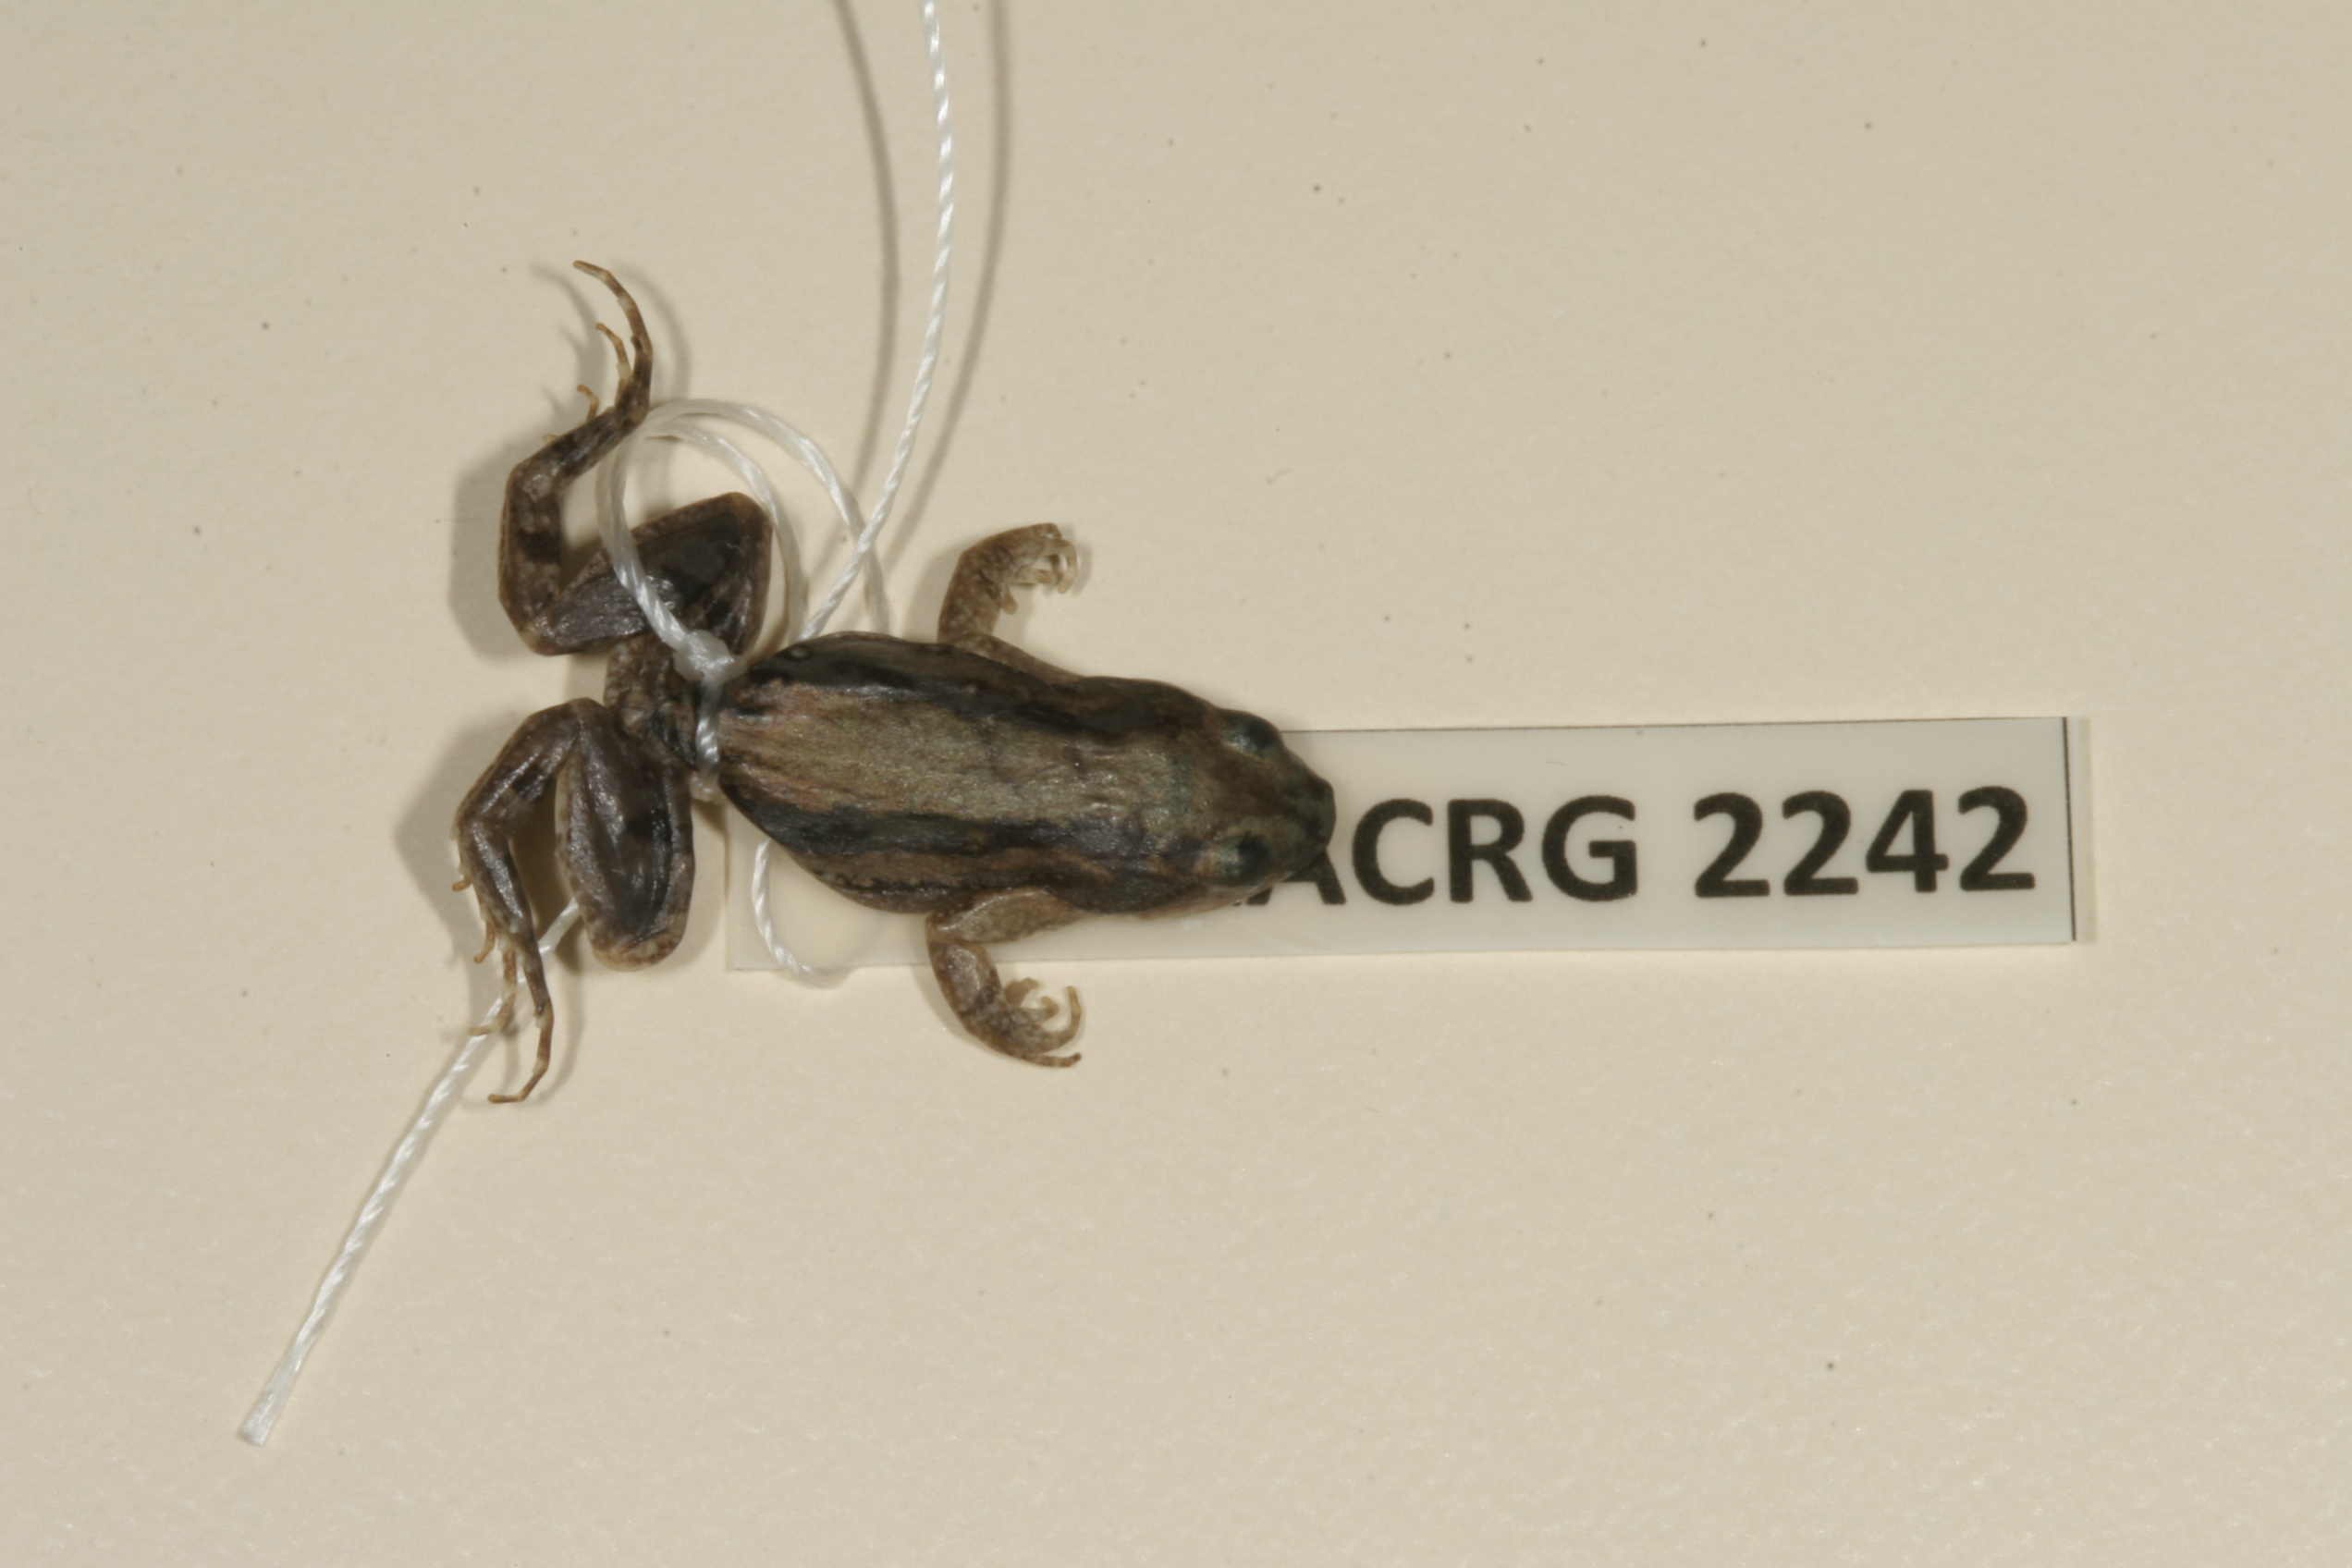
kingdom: Animalia
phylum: Chordata
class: Amphibia
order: Anura
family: Pyxicephalidae
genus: Cacosternum
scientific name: Cacosternum boettgeri
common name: Boettger's frog
